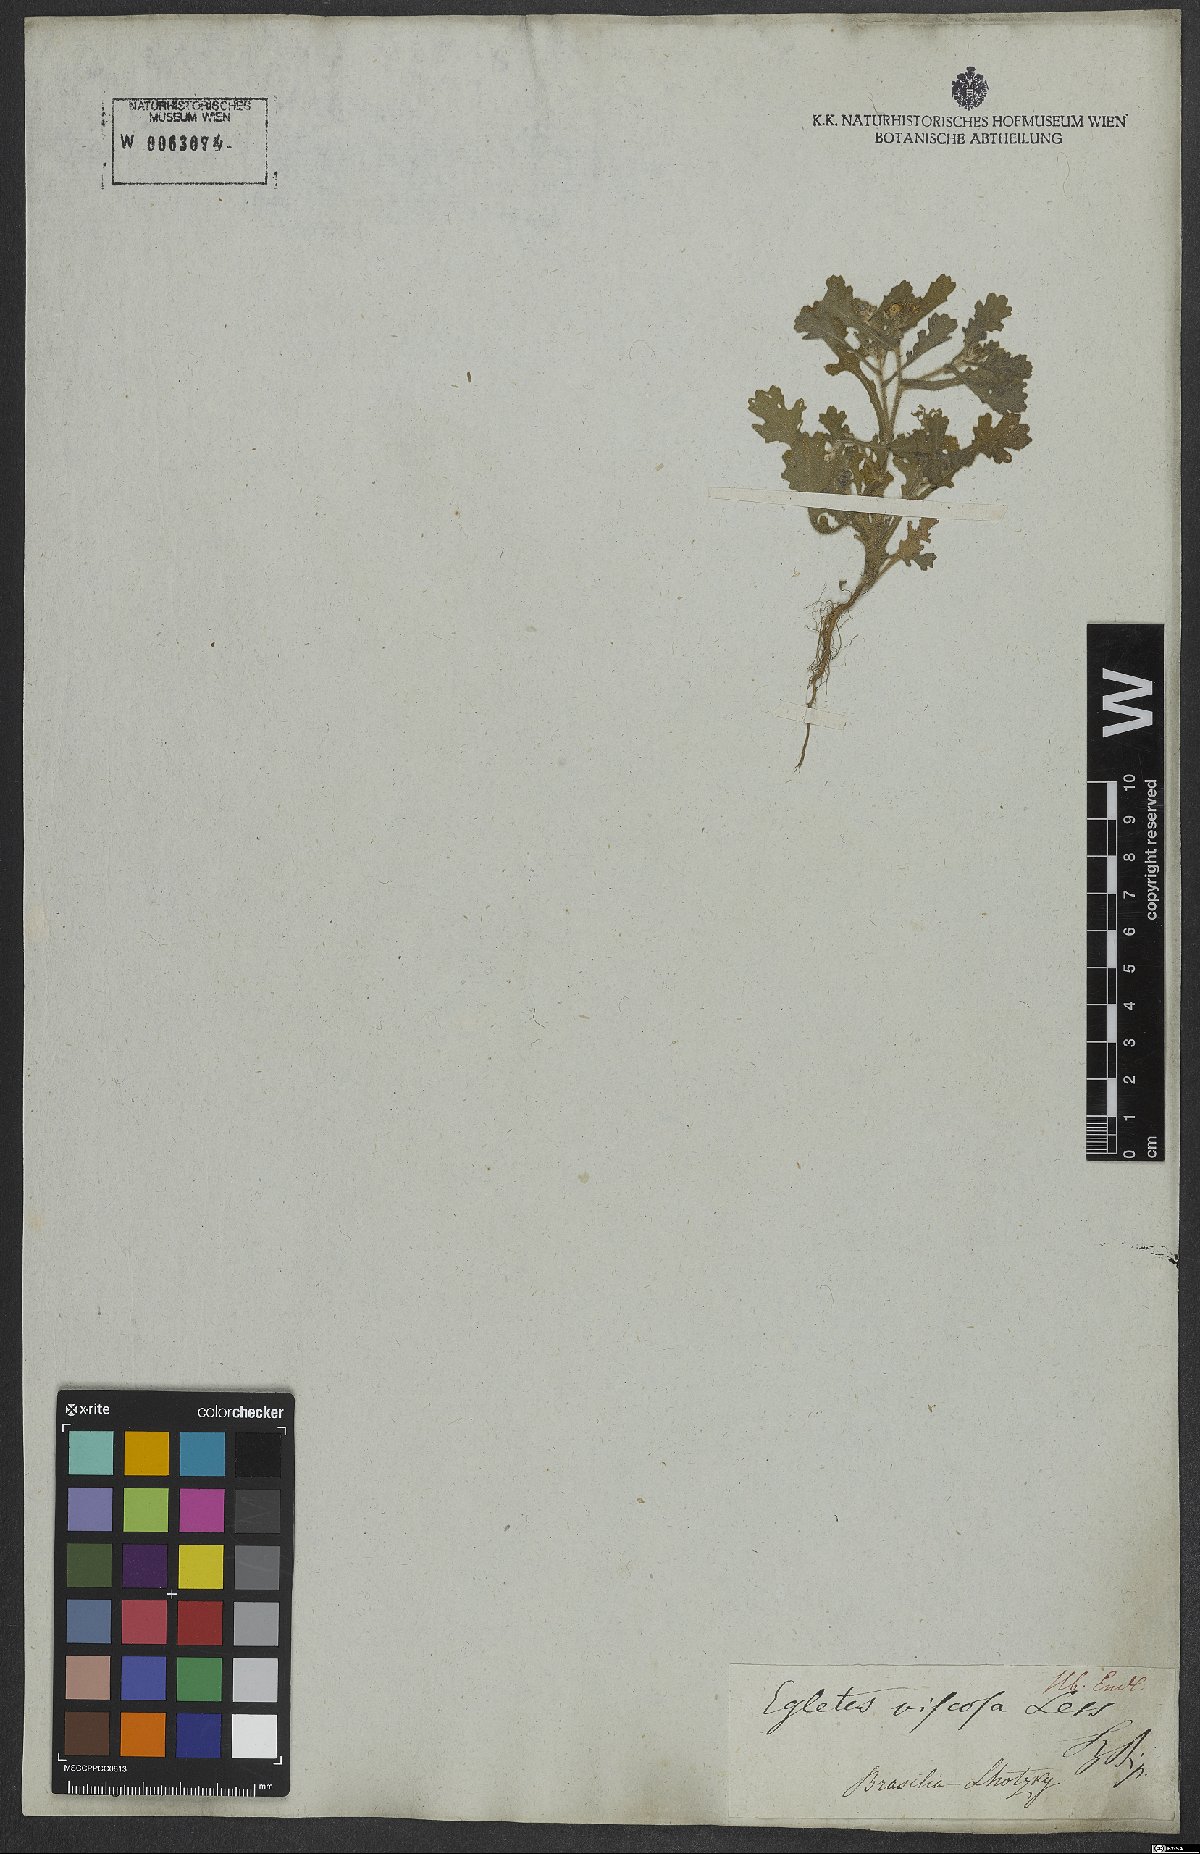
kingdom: Plantae
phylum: Tracheophyta
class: Magnoliopsida
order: Asterales
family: Asteraceae
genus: Egletes
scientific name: Egletes viscosa
